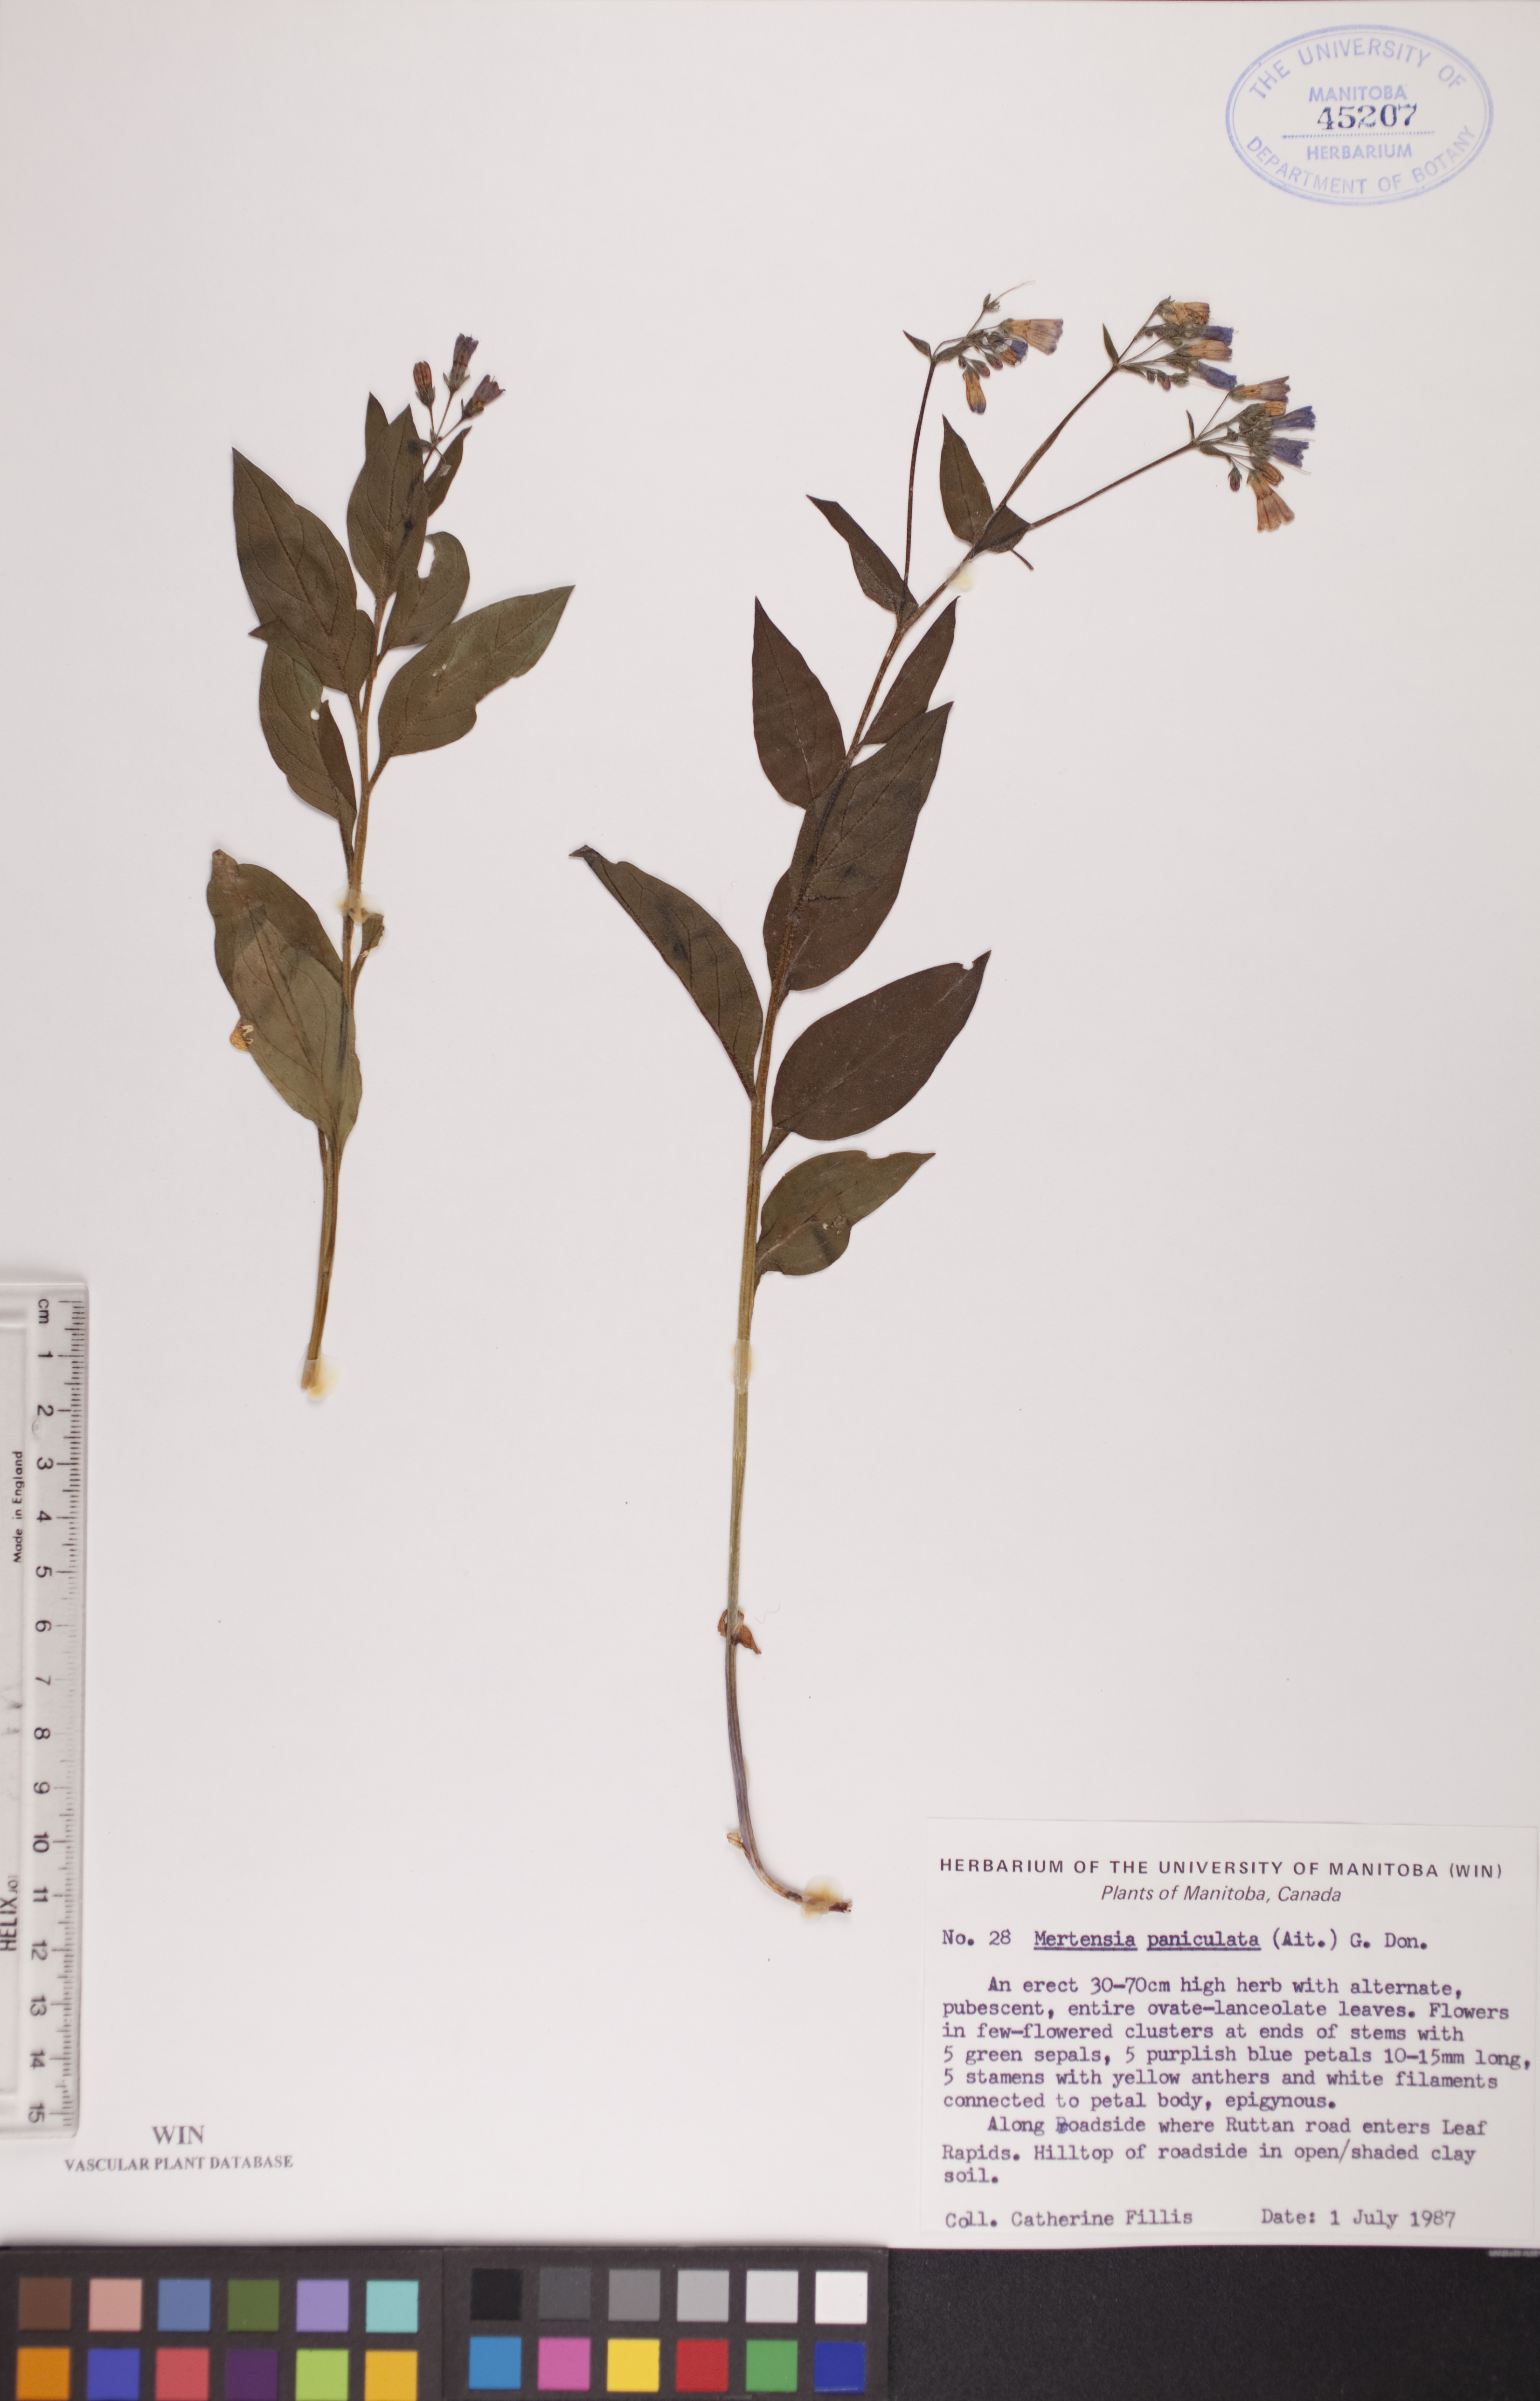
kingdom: Plantae
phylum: Tracheophyta
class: Magnoliopsida
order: Boraginales
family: Boraginaceae
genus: Mertensia
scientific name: Mertensia paniculata
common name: Panicled bluebells
